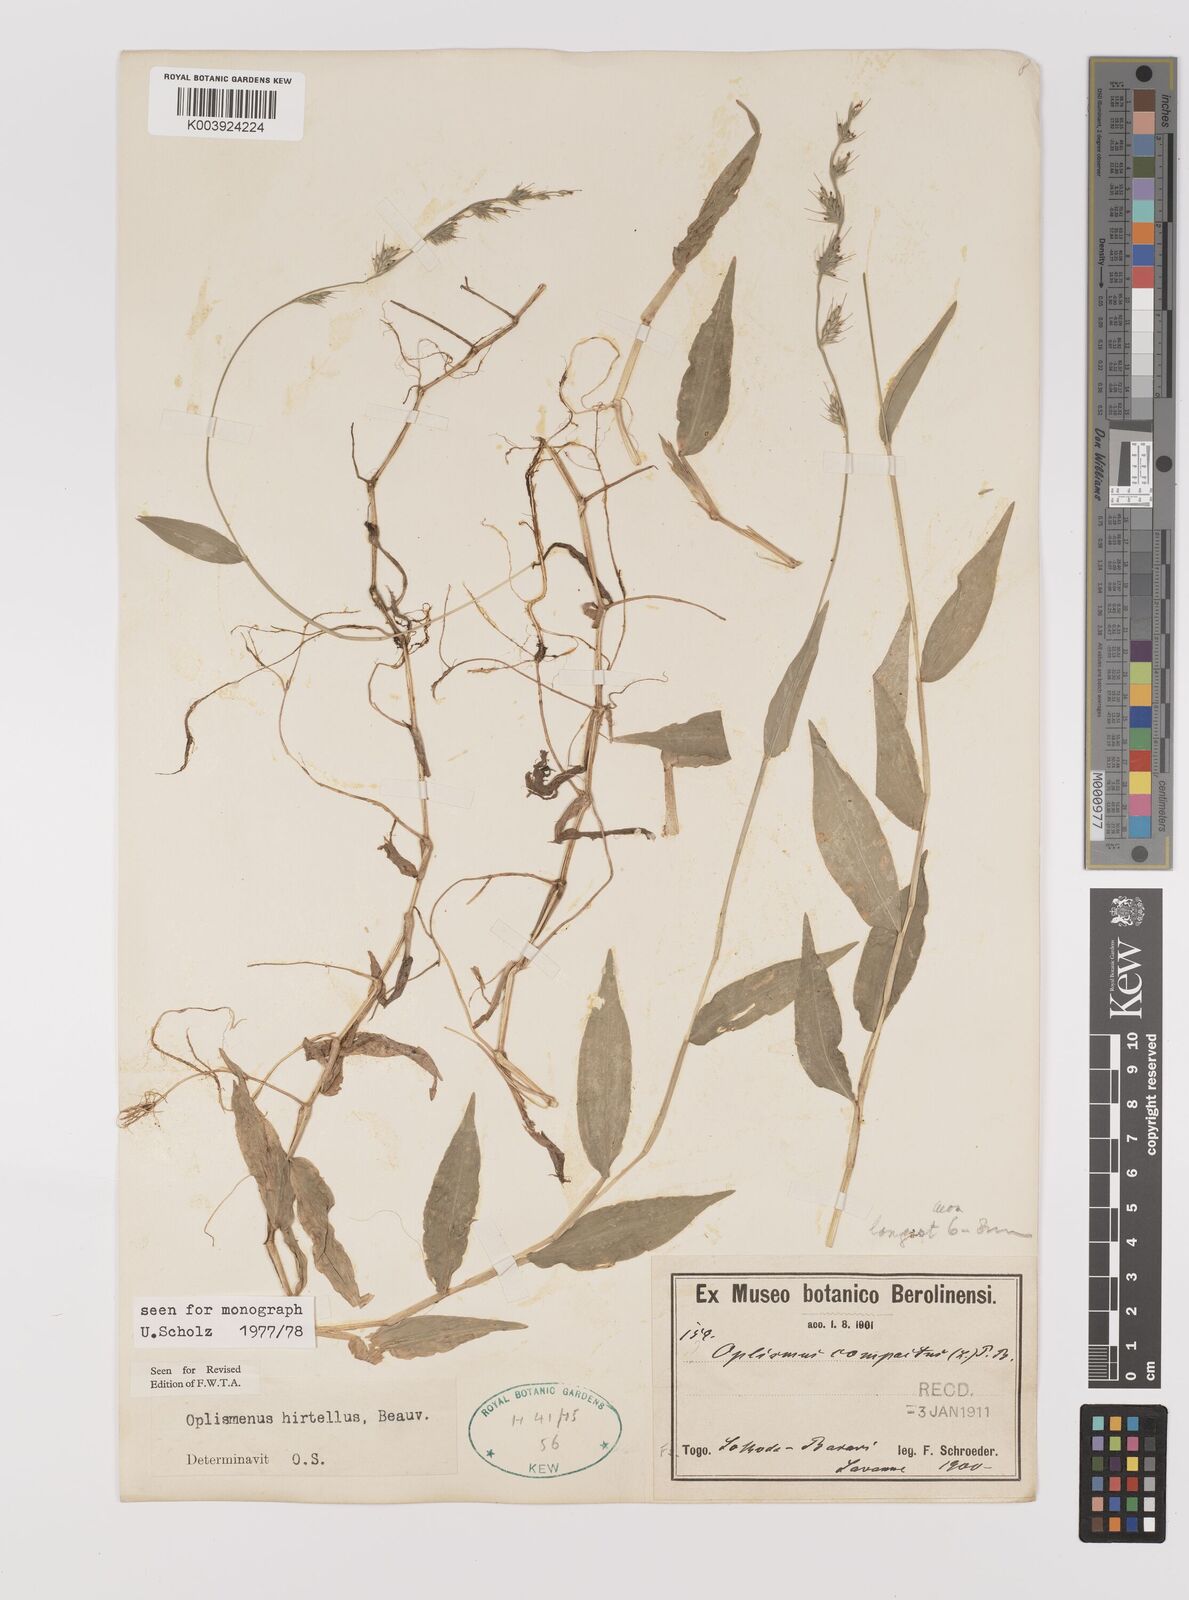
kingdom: Plantae
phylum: Tracheophyta
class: Liliopsida
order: Poales
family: Poaceae
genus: Oplismenus
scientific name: Oplismenus hirtellus
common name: Basketgrass
